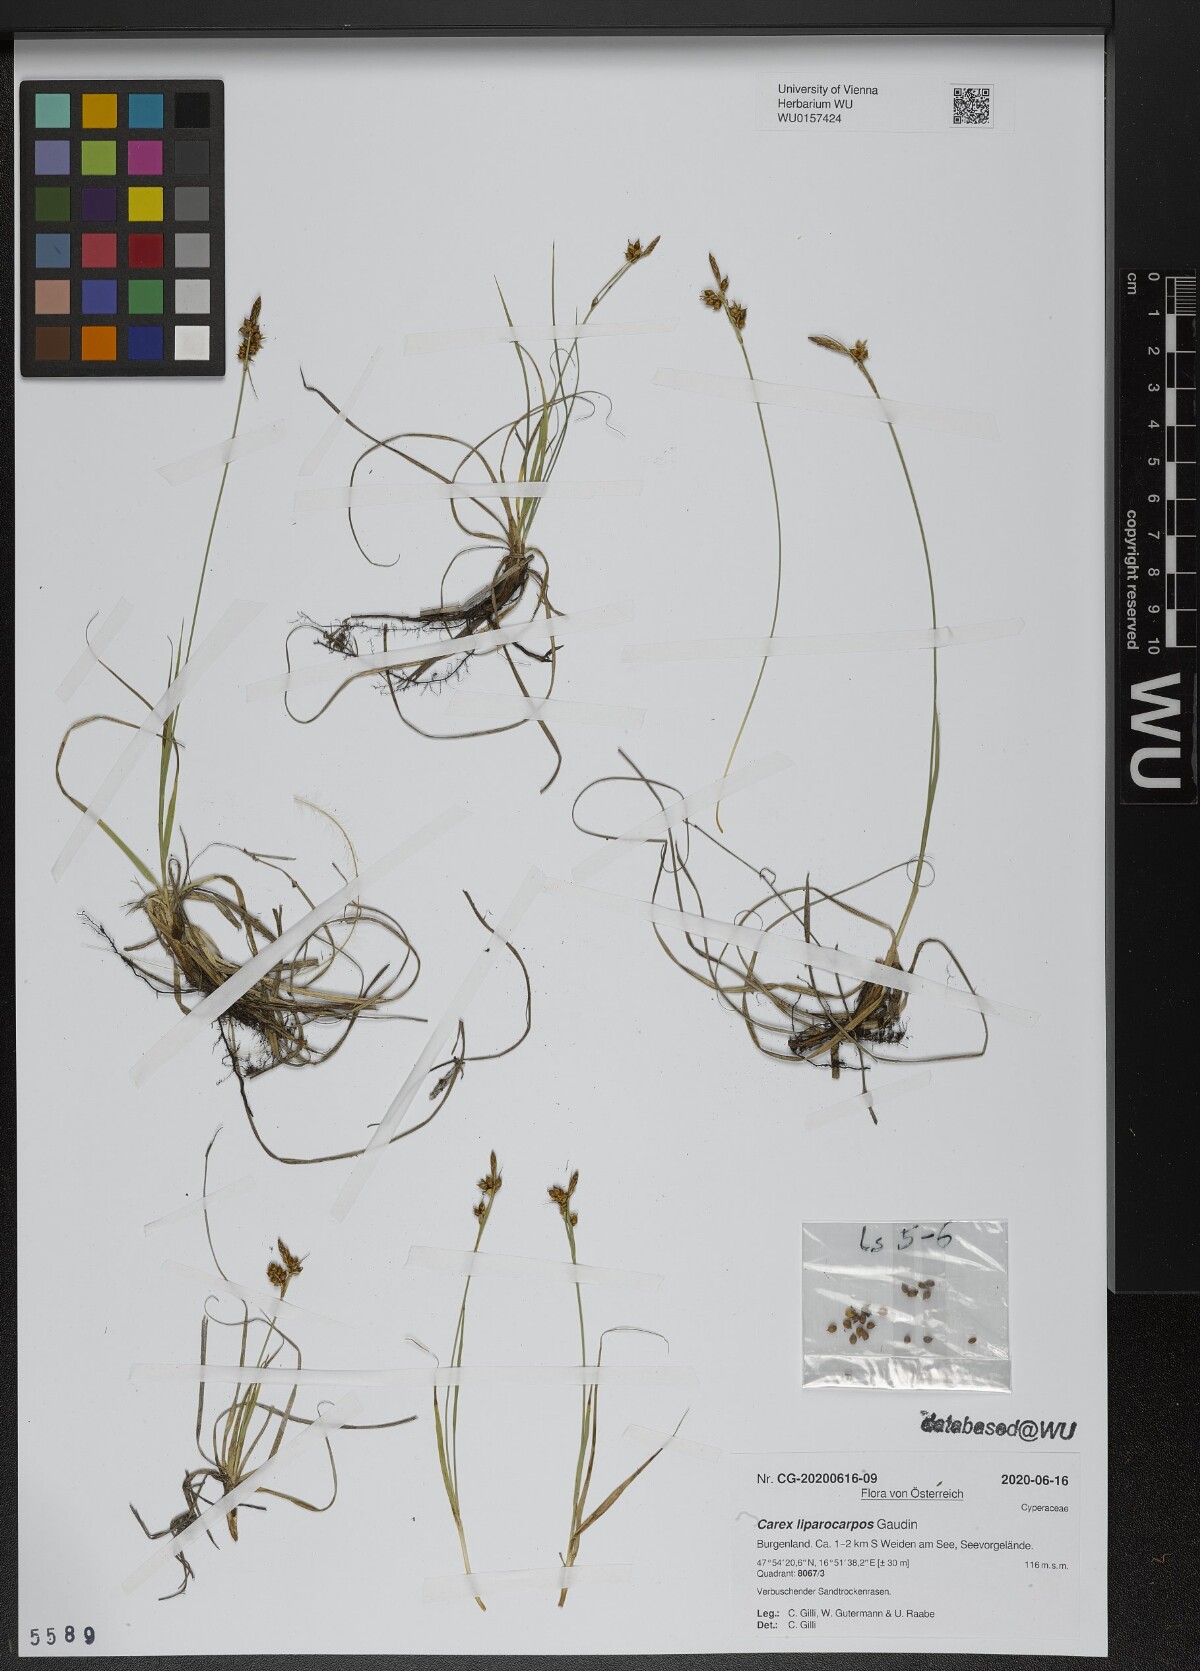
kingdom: Plantae
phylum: Tracheophyta
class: Liliopsida
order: Poales
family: Cyperaceae
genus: Carex
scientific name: Carex liparocarpos
